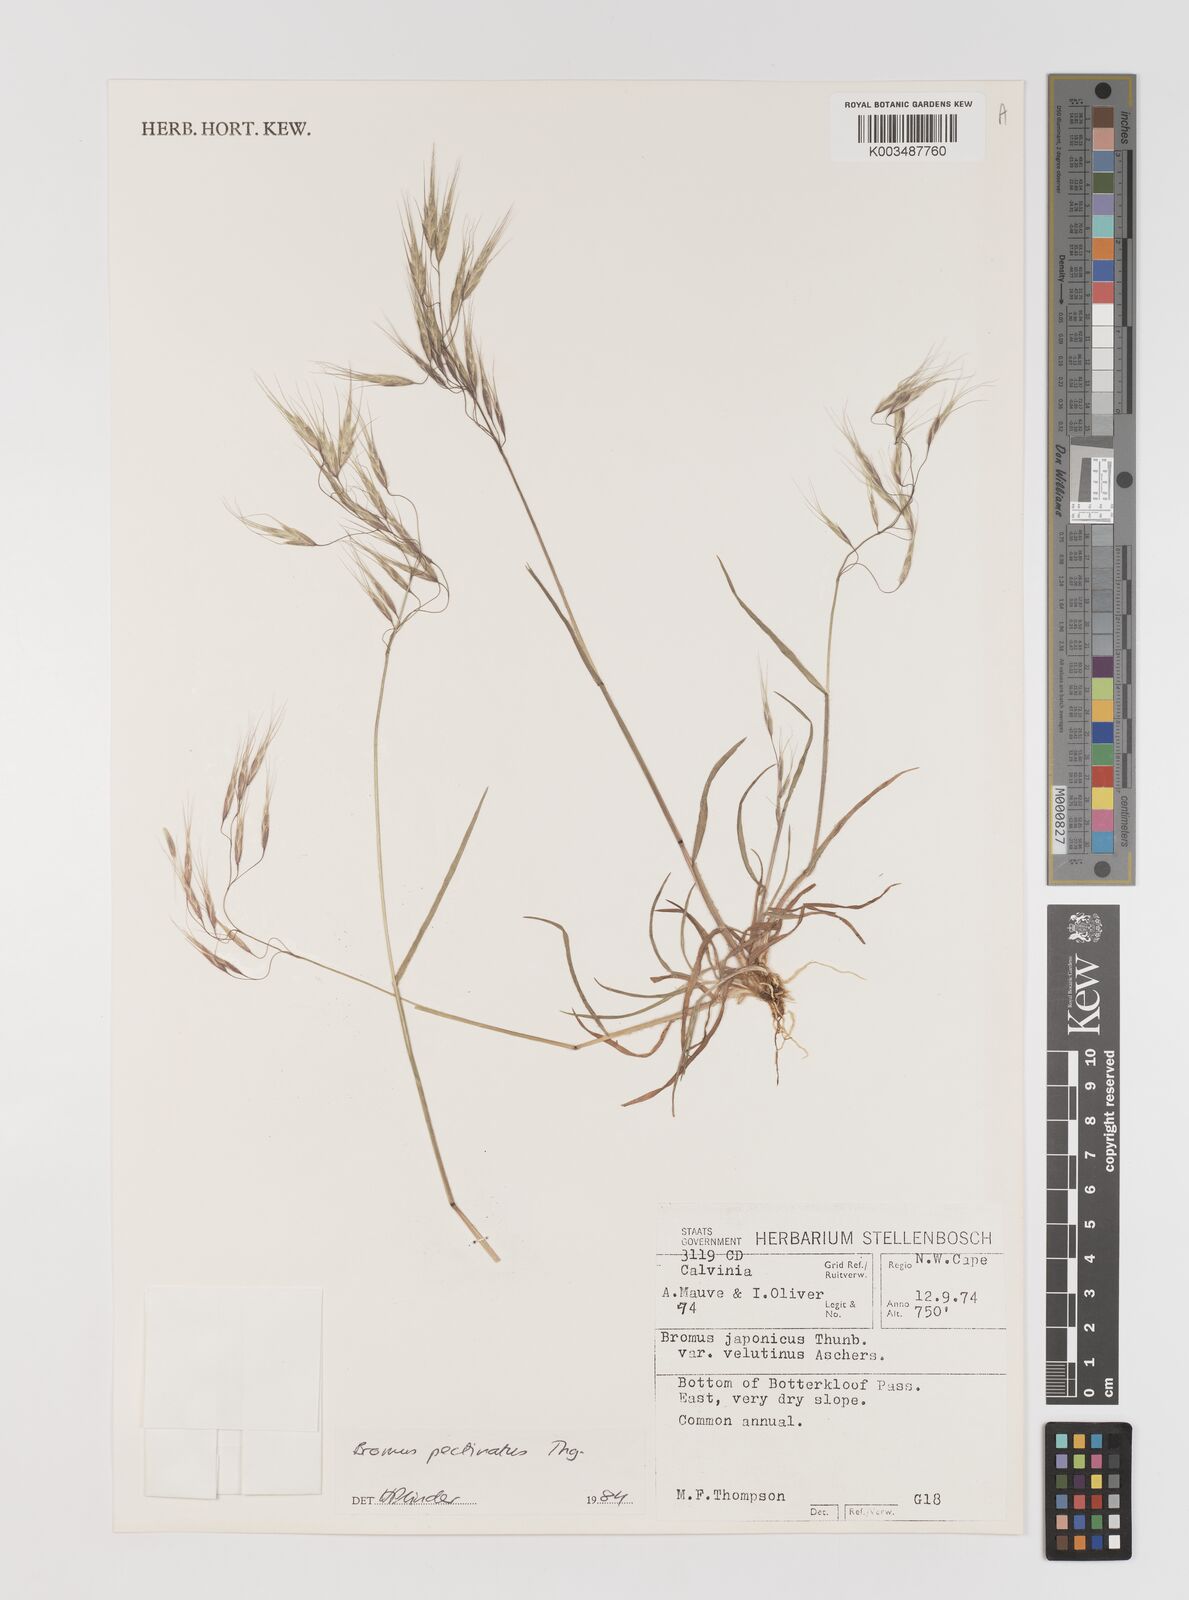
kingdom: Plantae
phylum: Tracheophyta
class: Liliopsida
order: Poales
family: Poaceae
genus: Bromus
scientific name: Bromus pectinatus
